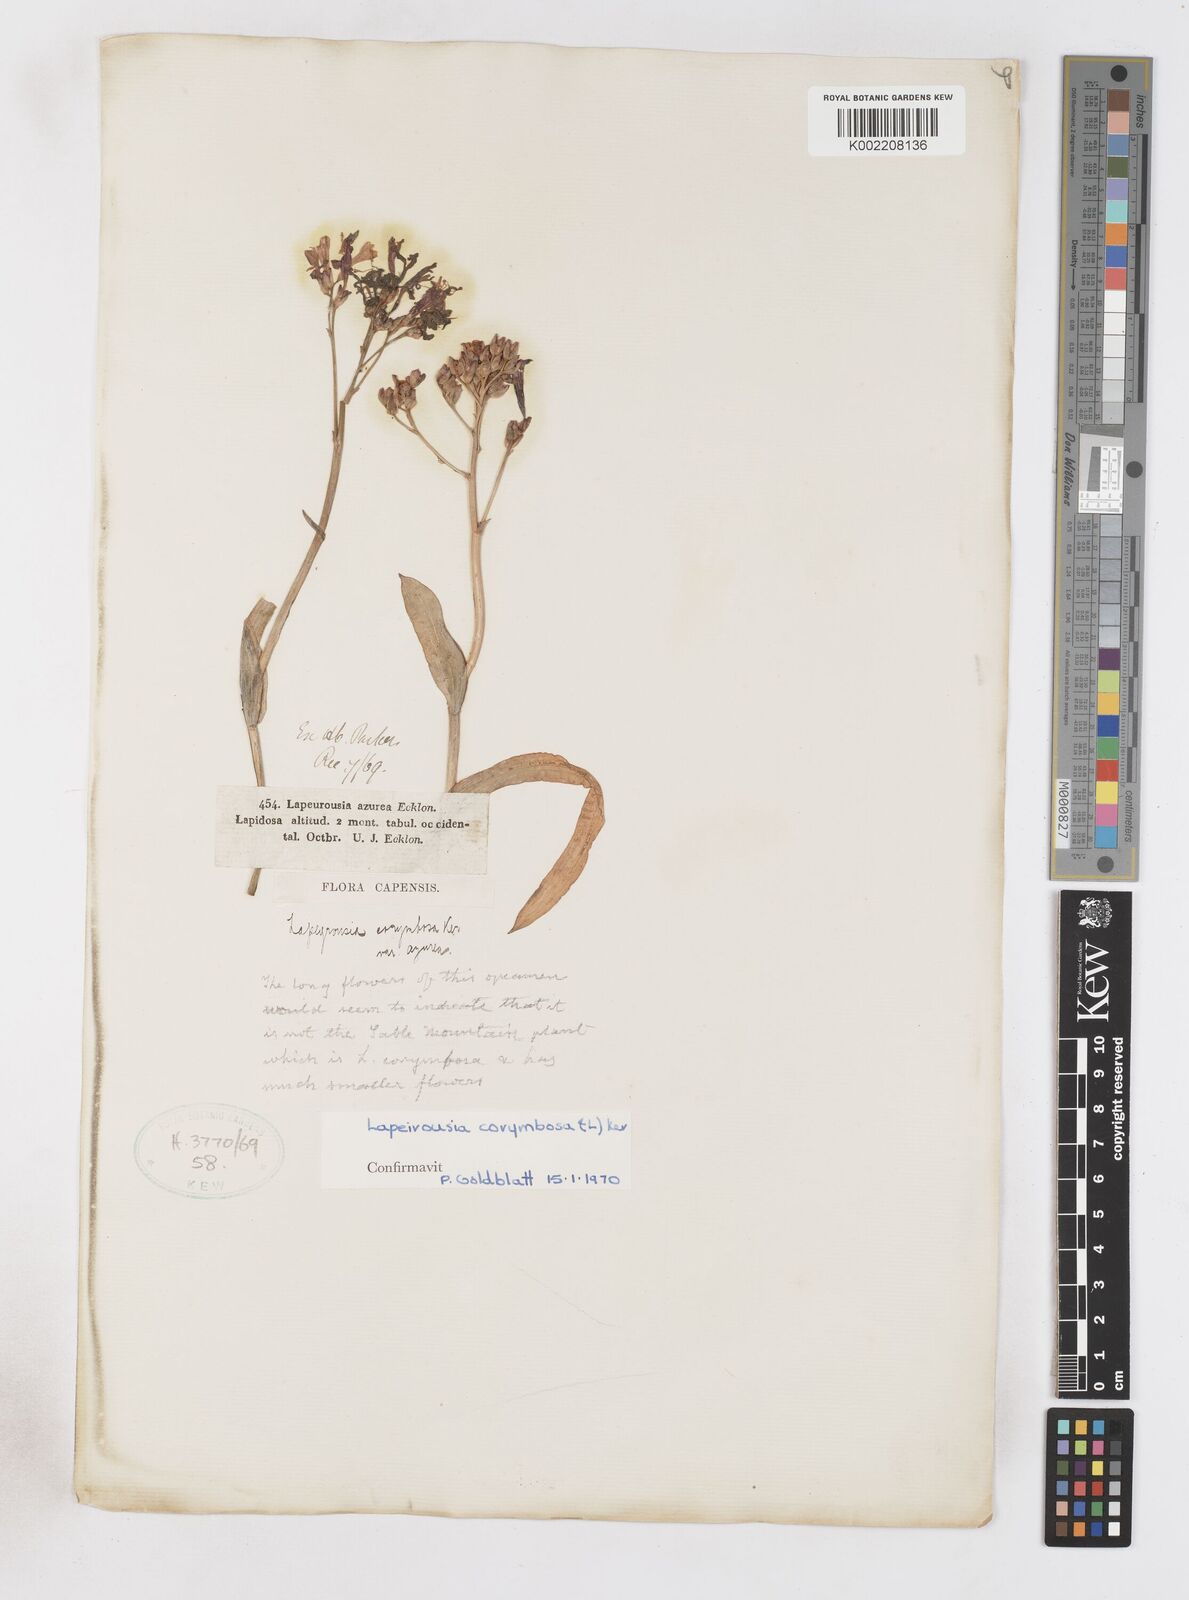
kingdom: Plantae
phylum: Tracheophyta
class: Liliopsida
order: Asparagales
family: Iridaceae
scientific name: Iridaceae
